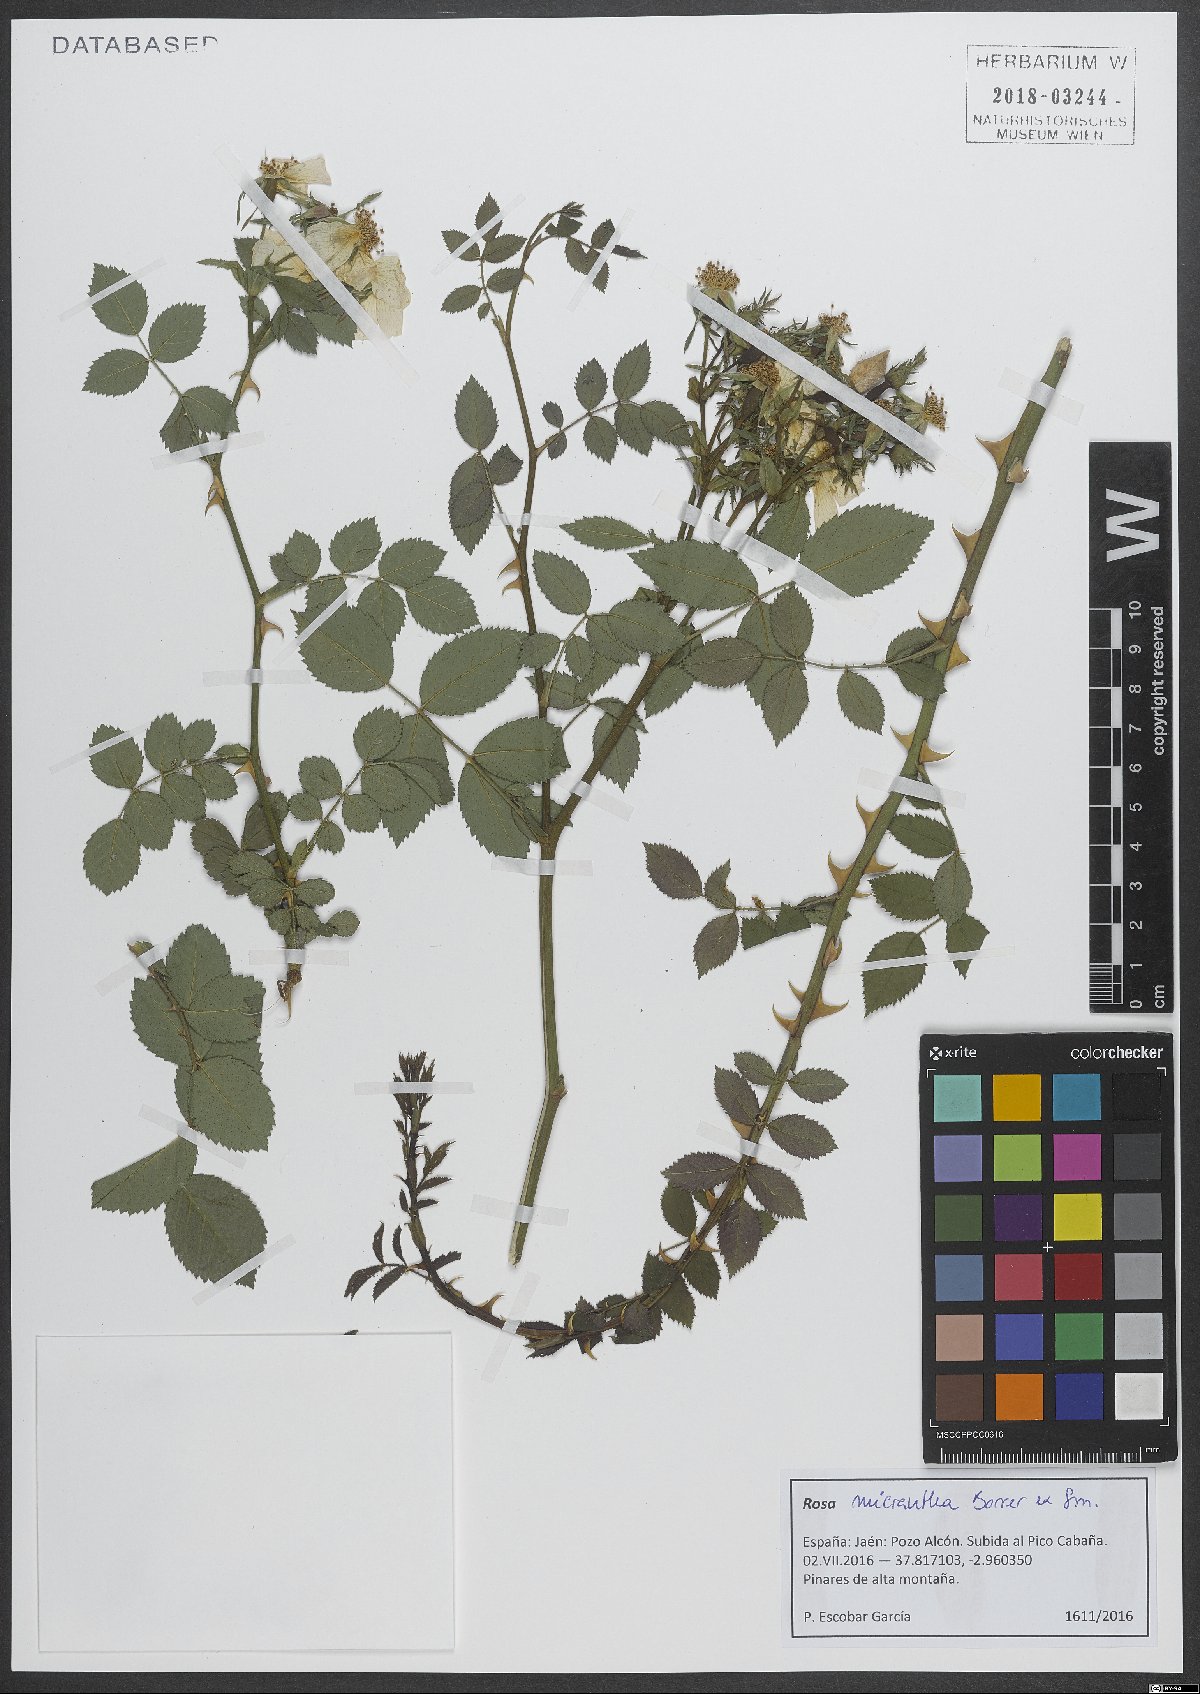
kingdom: Plantae
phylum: Tracheophyta
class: Magnoliopsida
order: Rosales
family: Rosaceae
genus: Rosa
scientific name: Rosa micrantha
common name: Small-flowered sweet-briar
